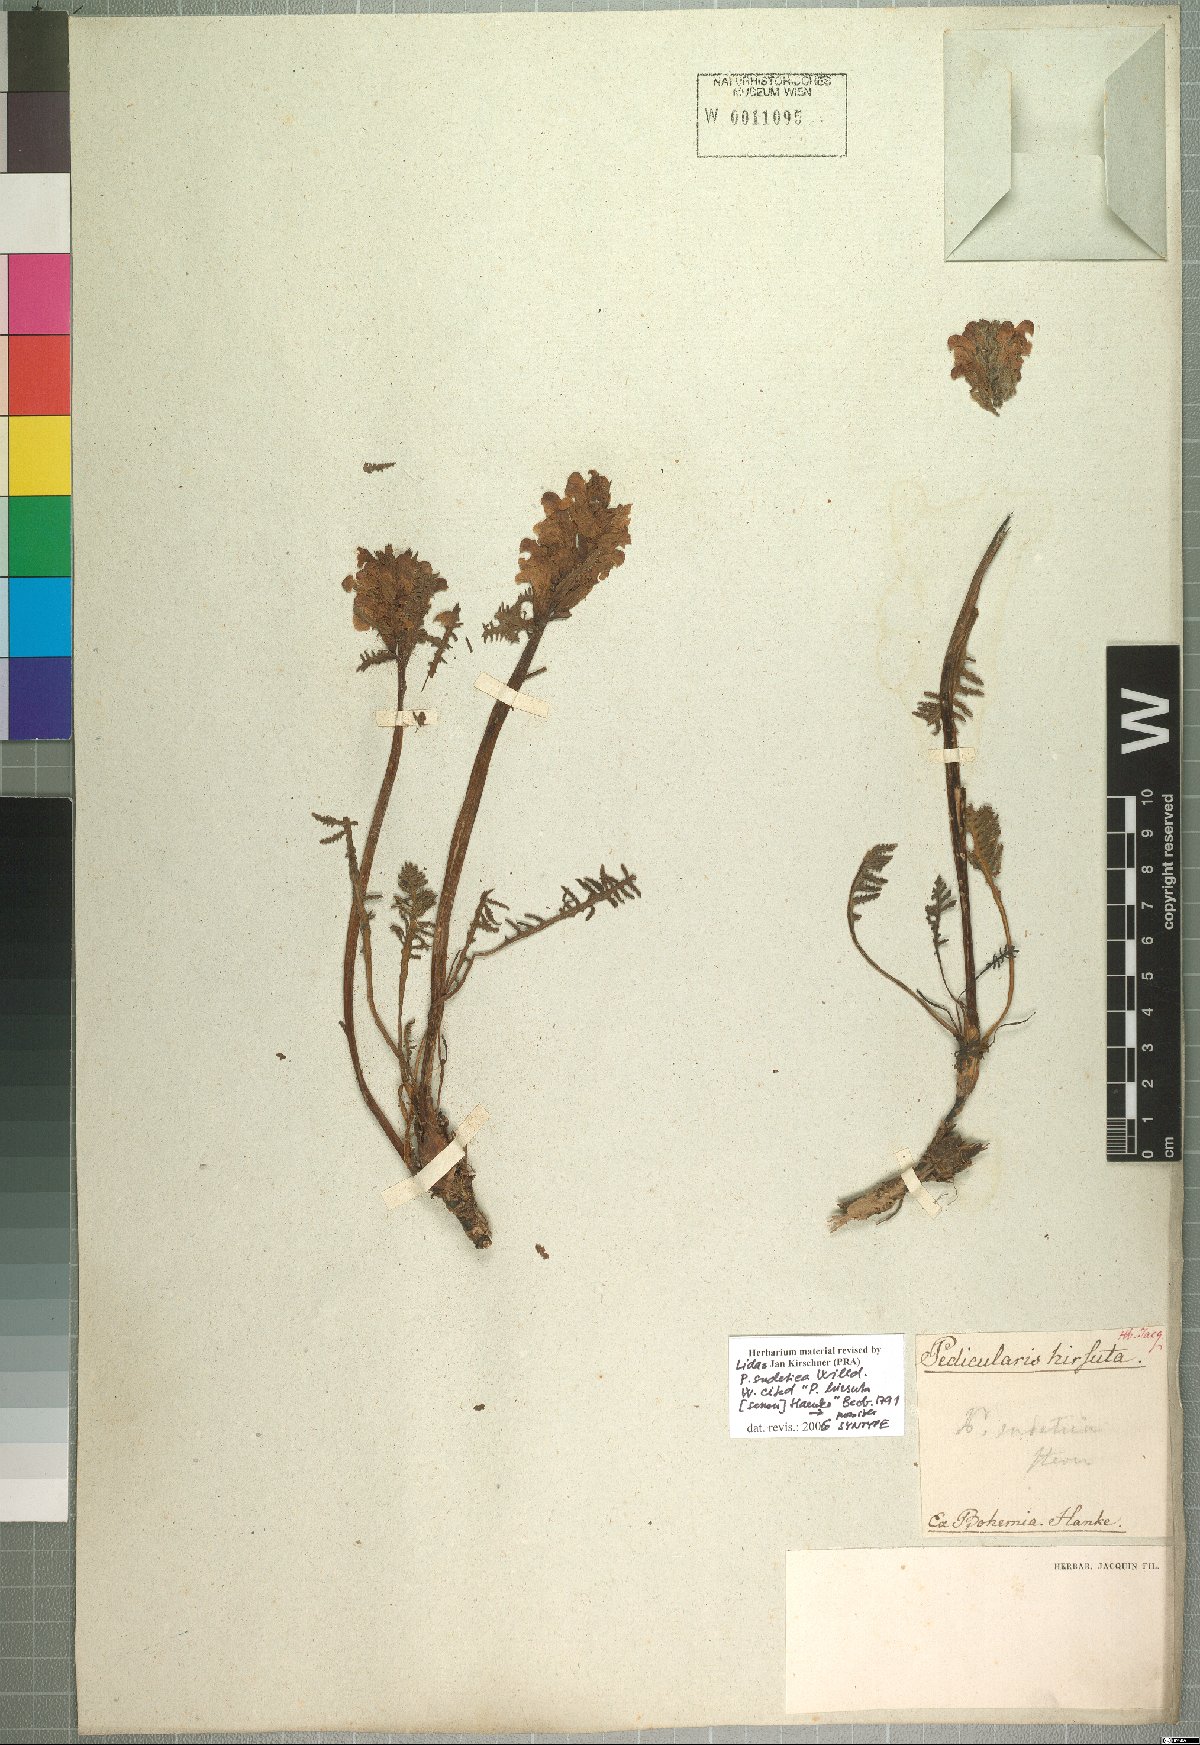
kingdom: Plantae
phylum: Tracheophyta
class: Magnoliopsida
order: Lamiales
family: Orobanchaceae
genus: Pedicularis
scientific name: Pedicularis sudetica
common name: Sudeten lousewort
